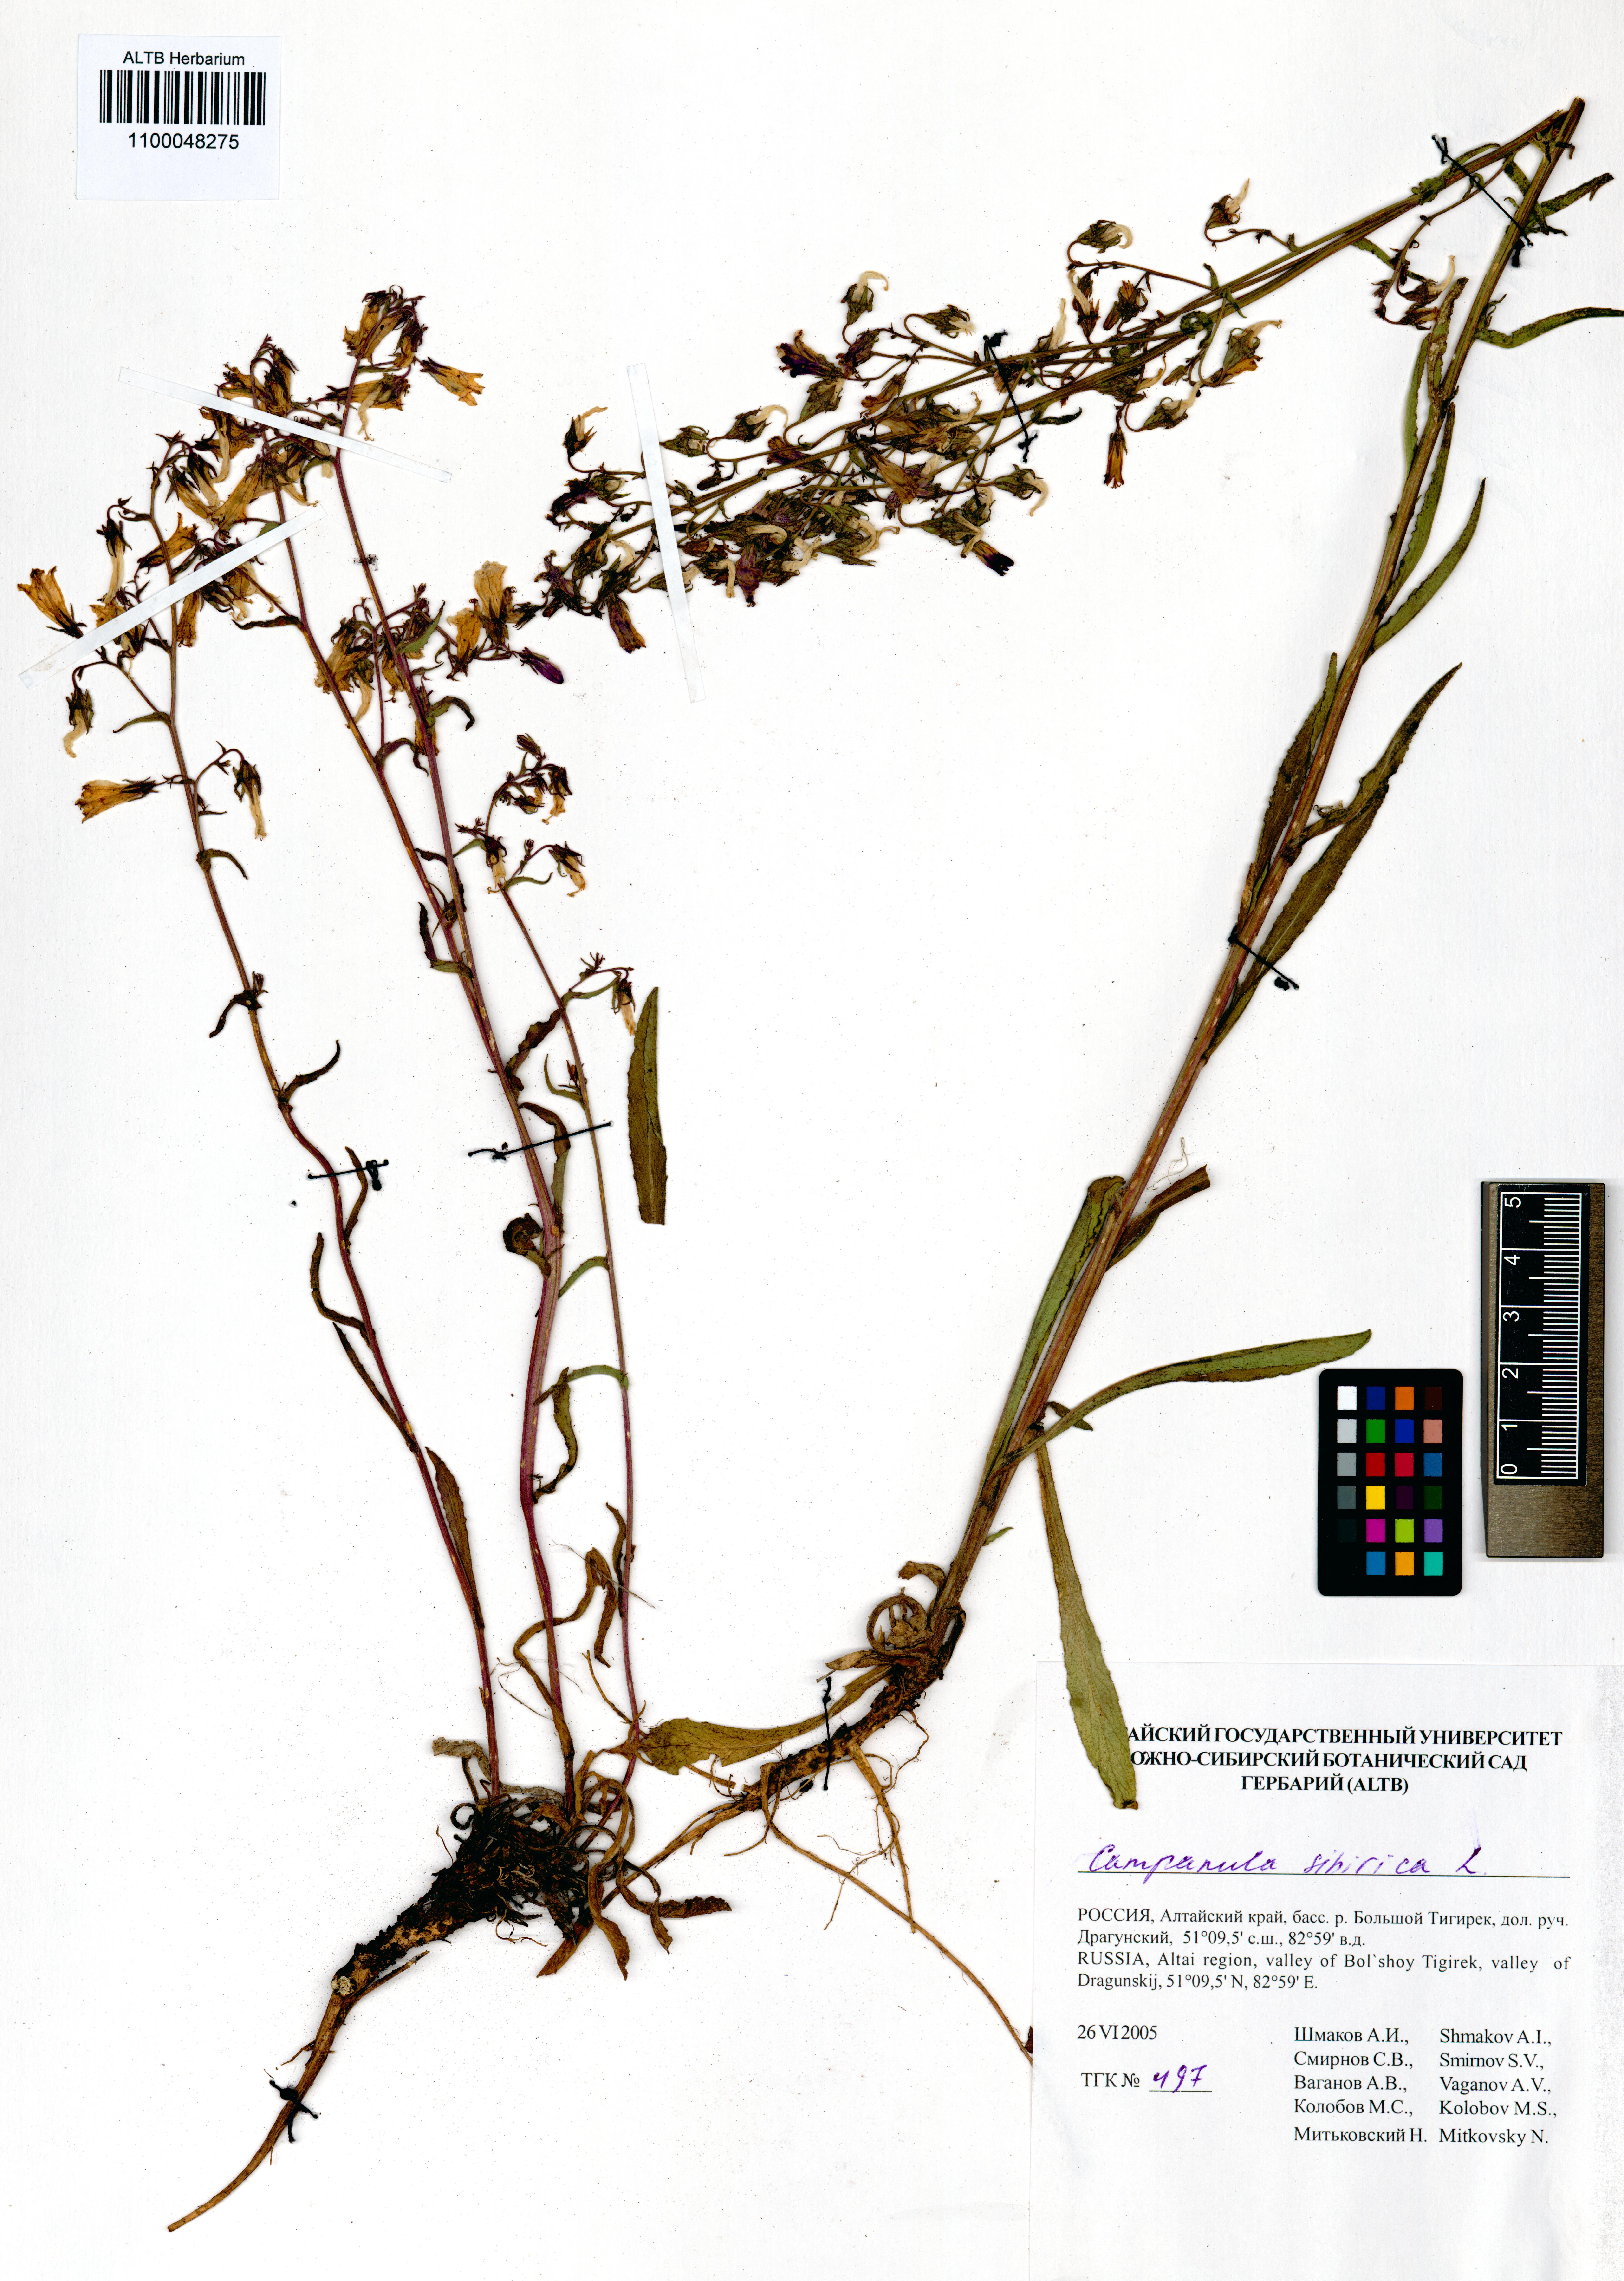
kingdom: Plantae
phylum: Tracheophyta
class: Magnoliopsida
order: Asterales
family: Campanulaceae
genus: Campanula
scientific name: Campanula sibirica
